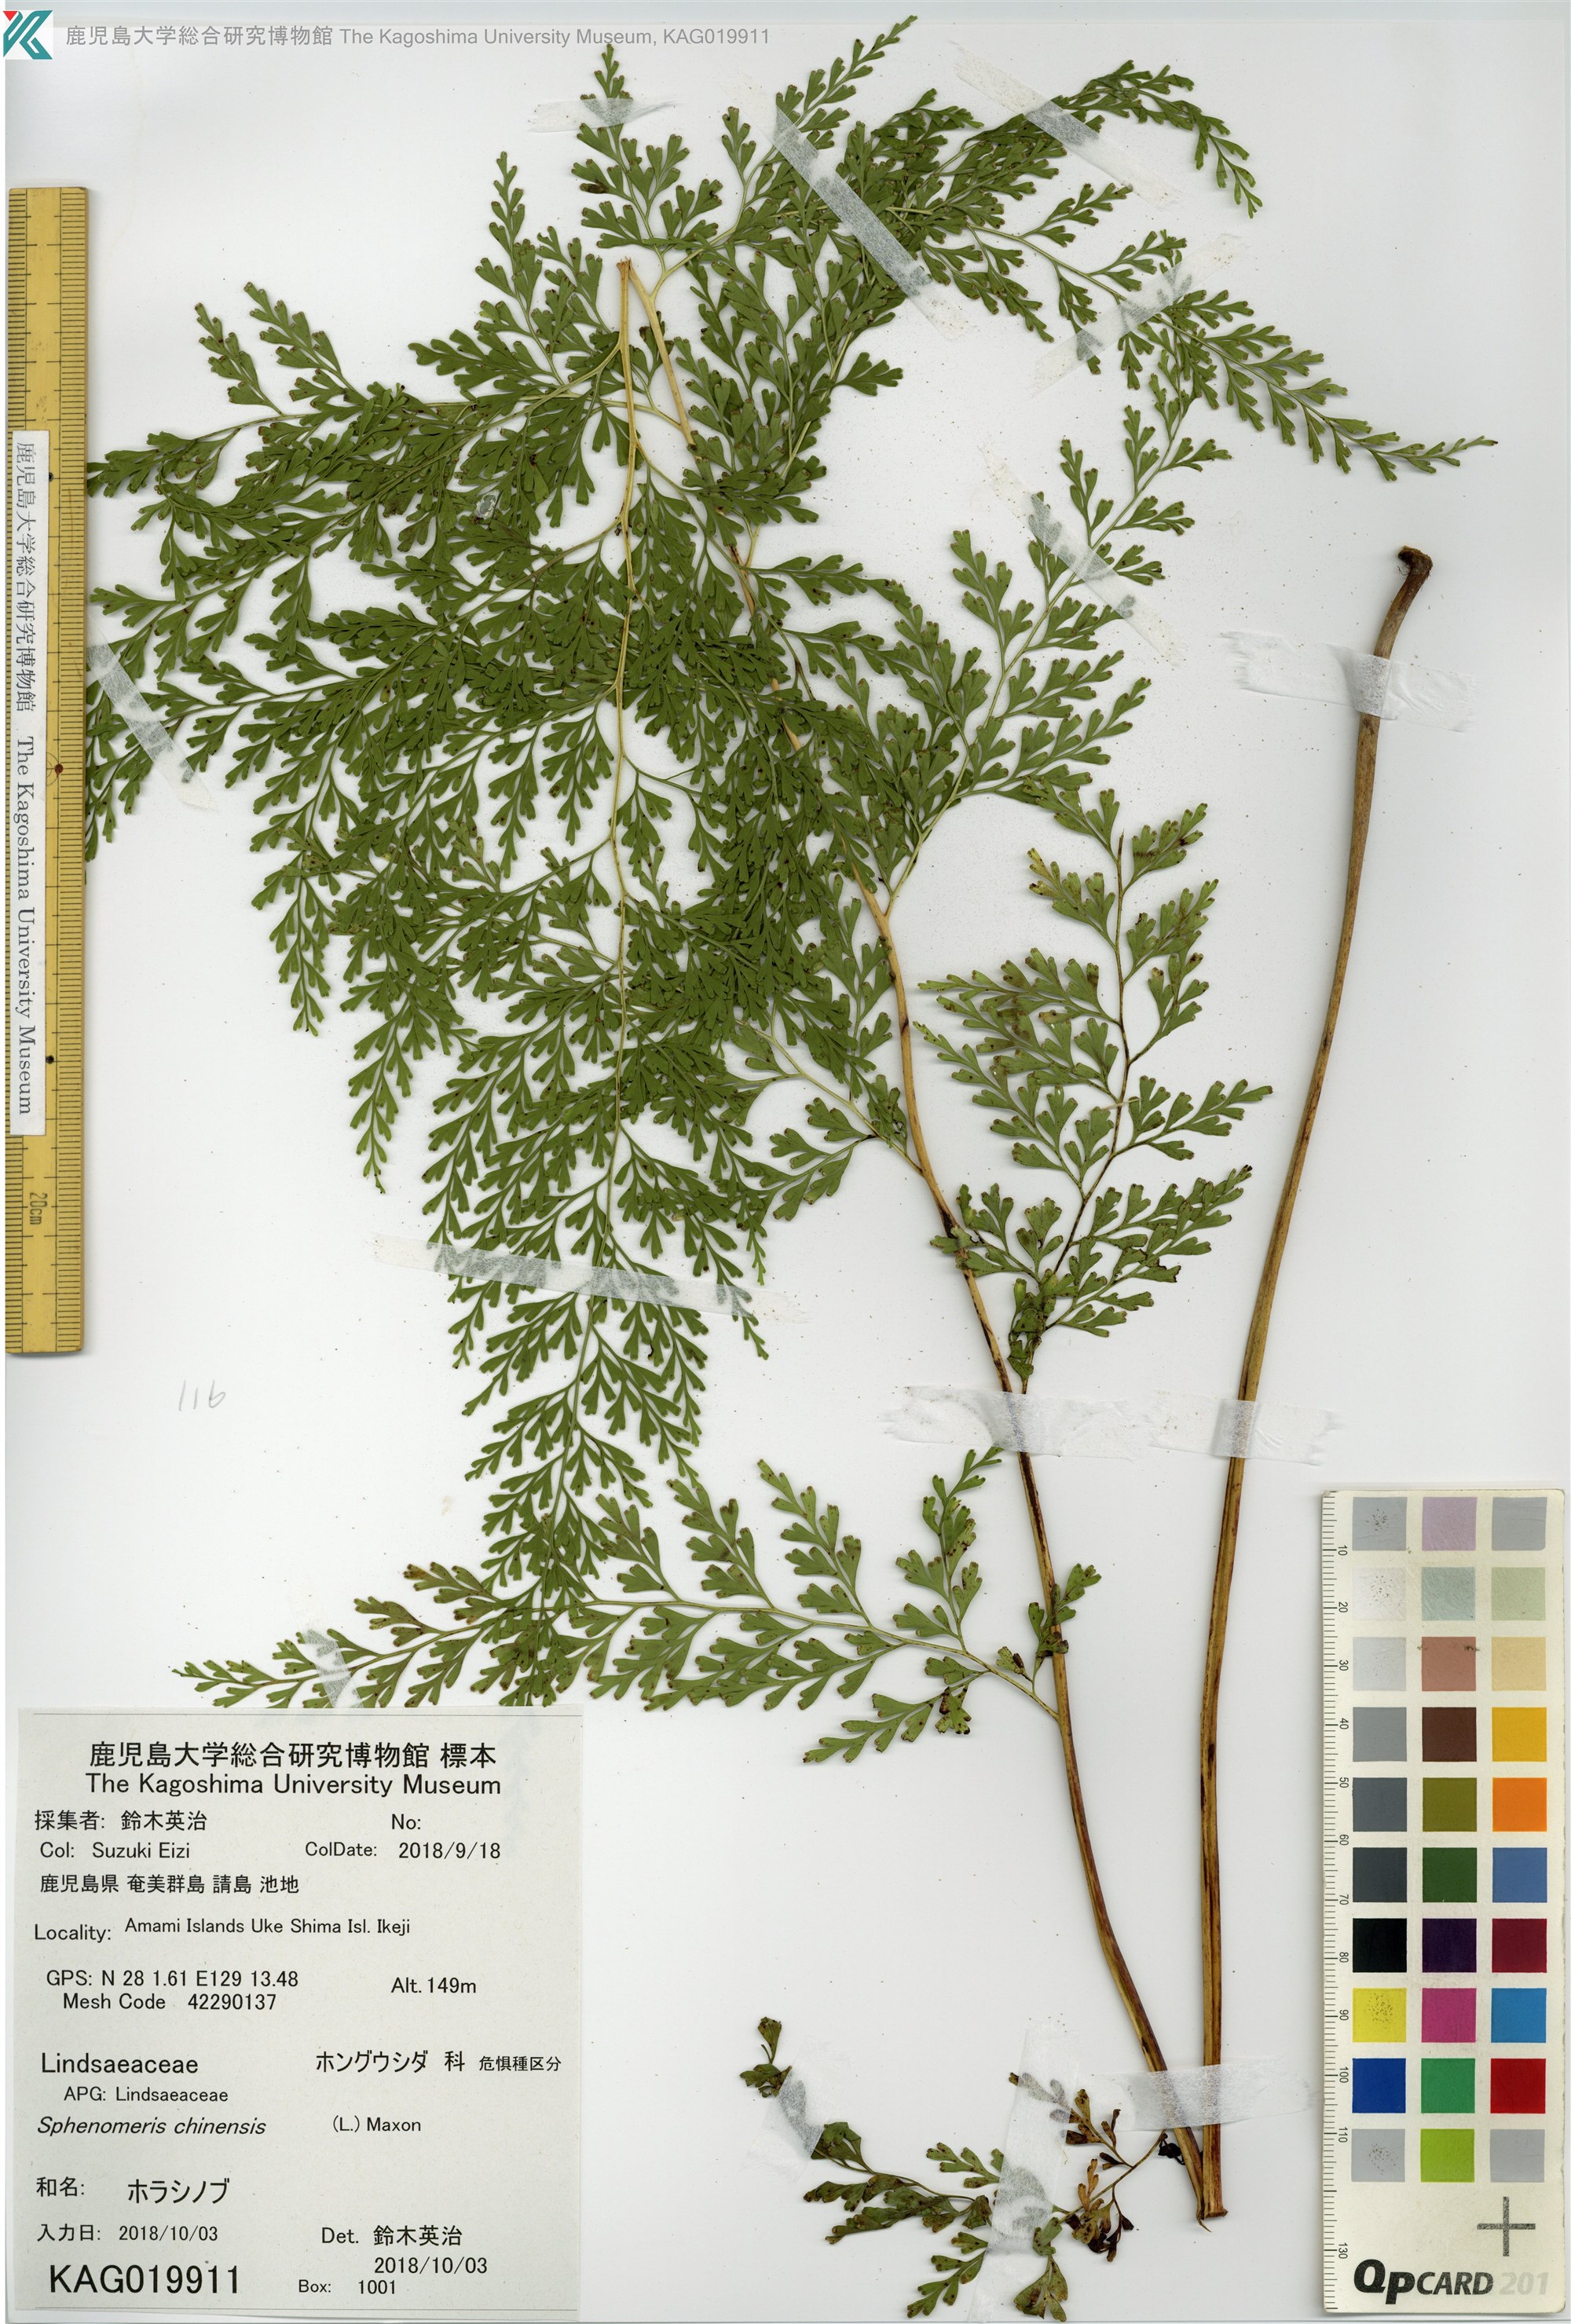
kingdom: Plantae
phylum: Tracheophyta
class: Polypodiopsida
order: Polypodiales
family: Lindsaeaceae
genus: Odontosoria
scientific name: Odontosoria chinensis
